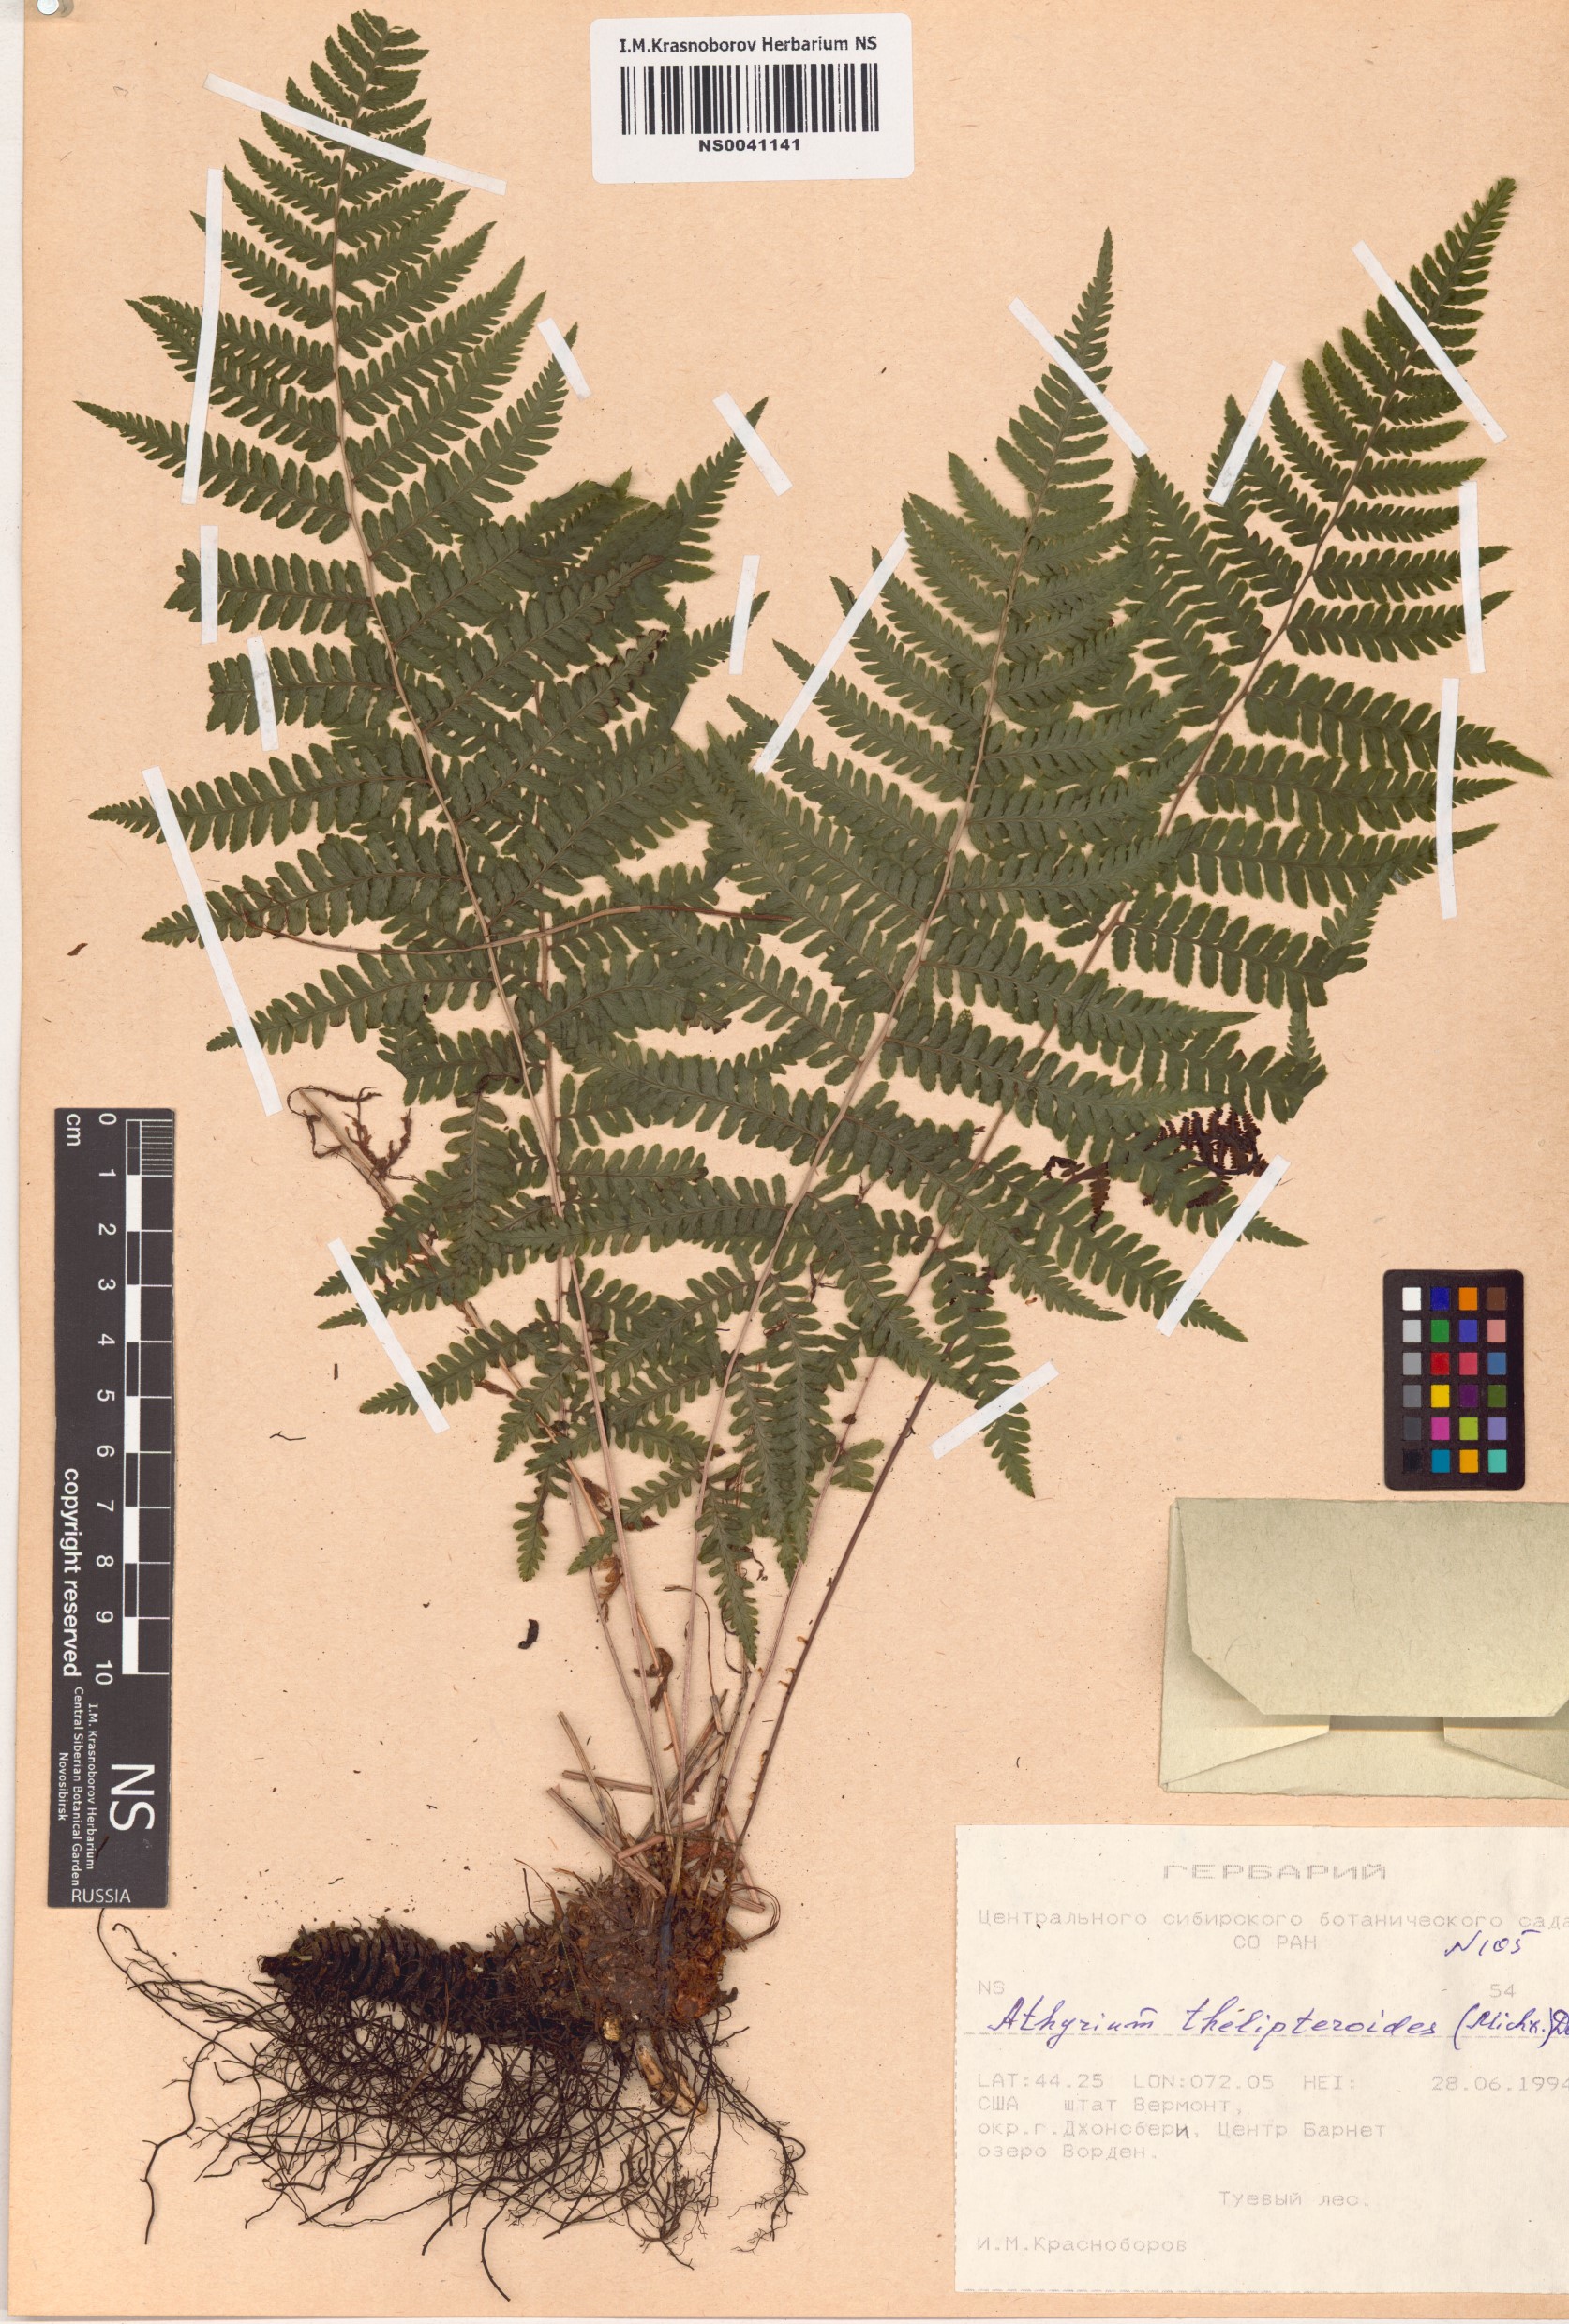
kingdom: Plantae
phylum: Tracheophyta
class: Polypodiopsida
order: Polypodiales
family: Athyriaceae
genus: Deparia
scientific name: Deparia acrostichoides
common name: Silver false spleenwort
